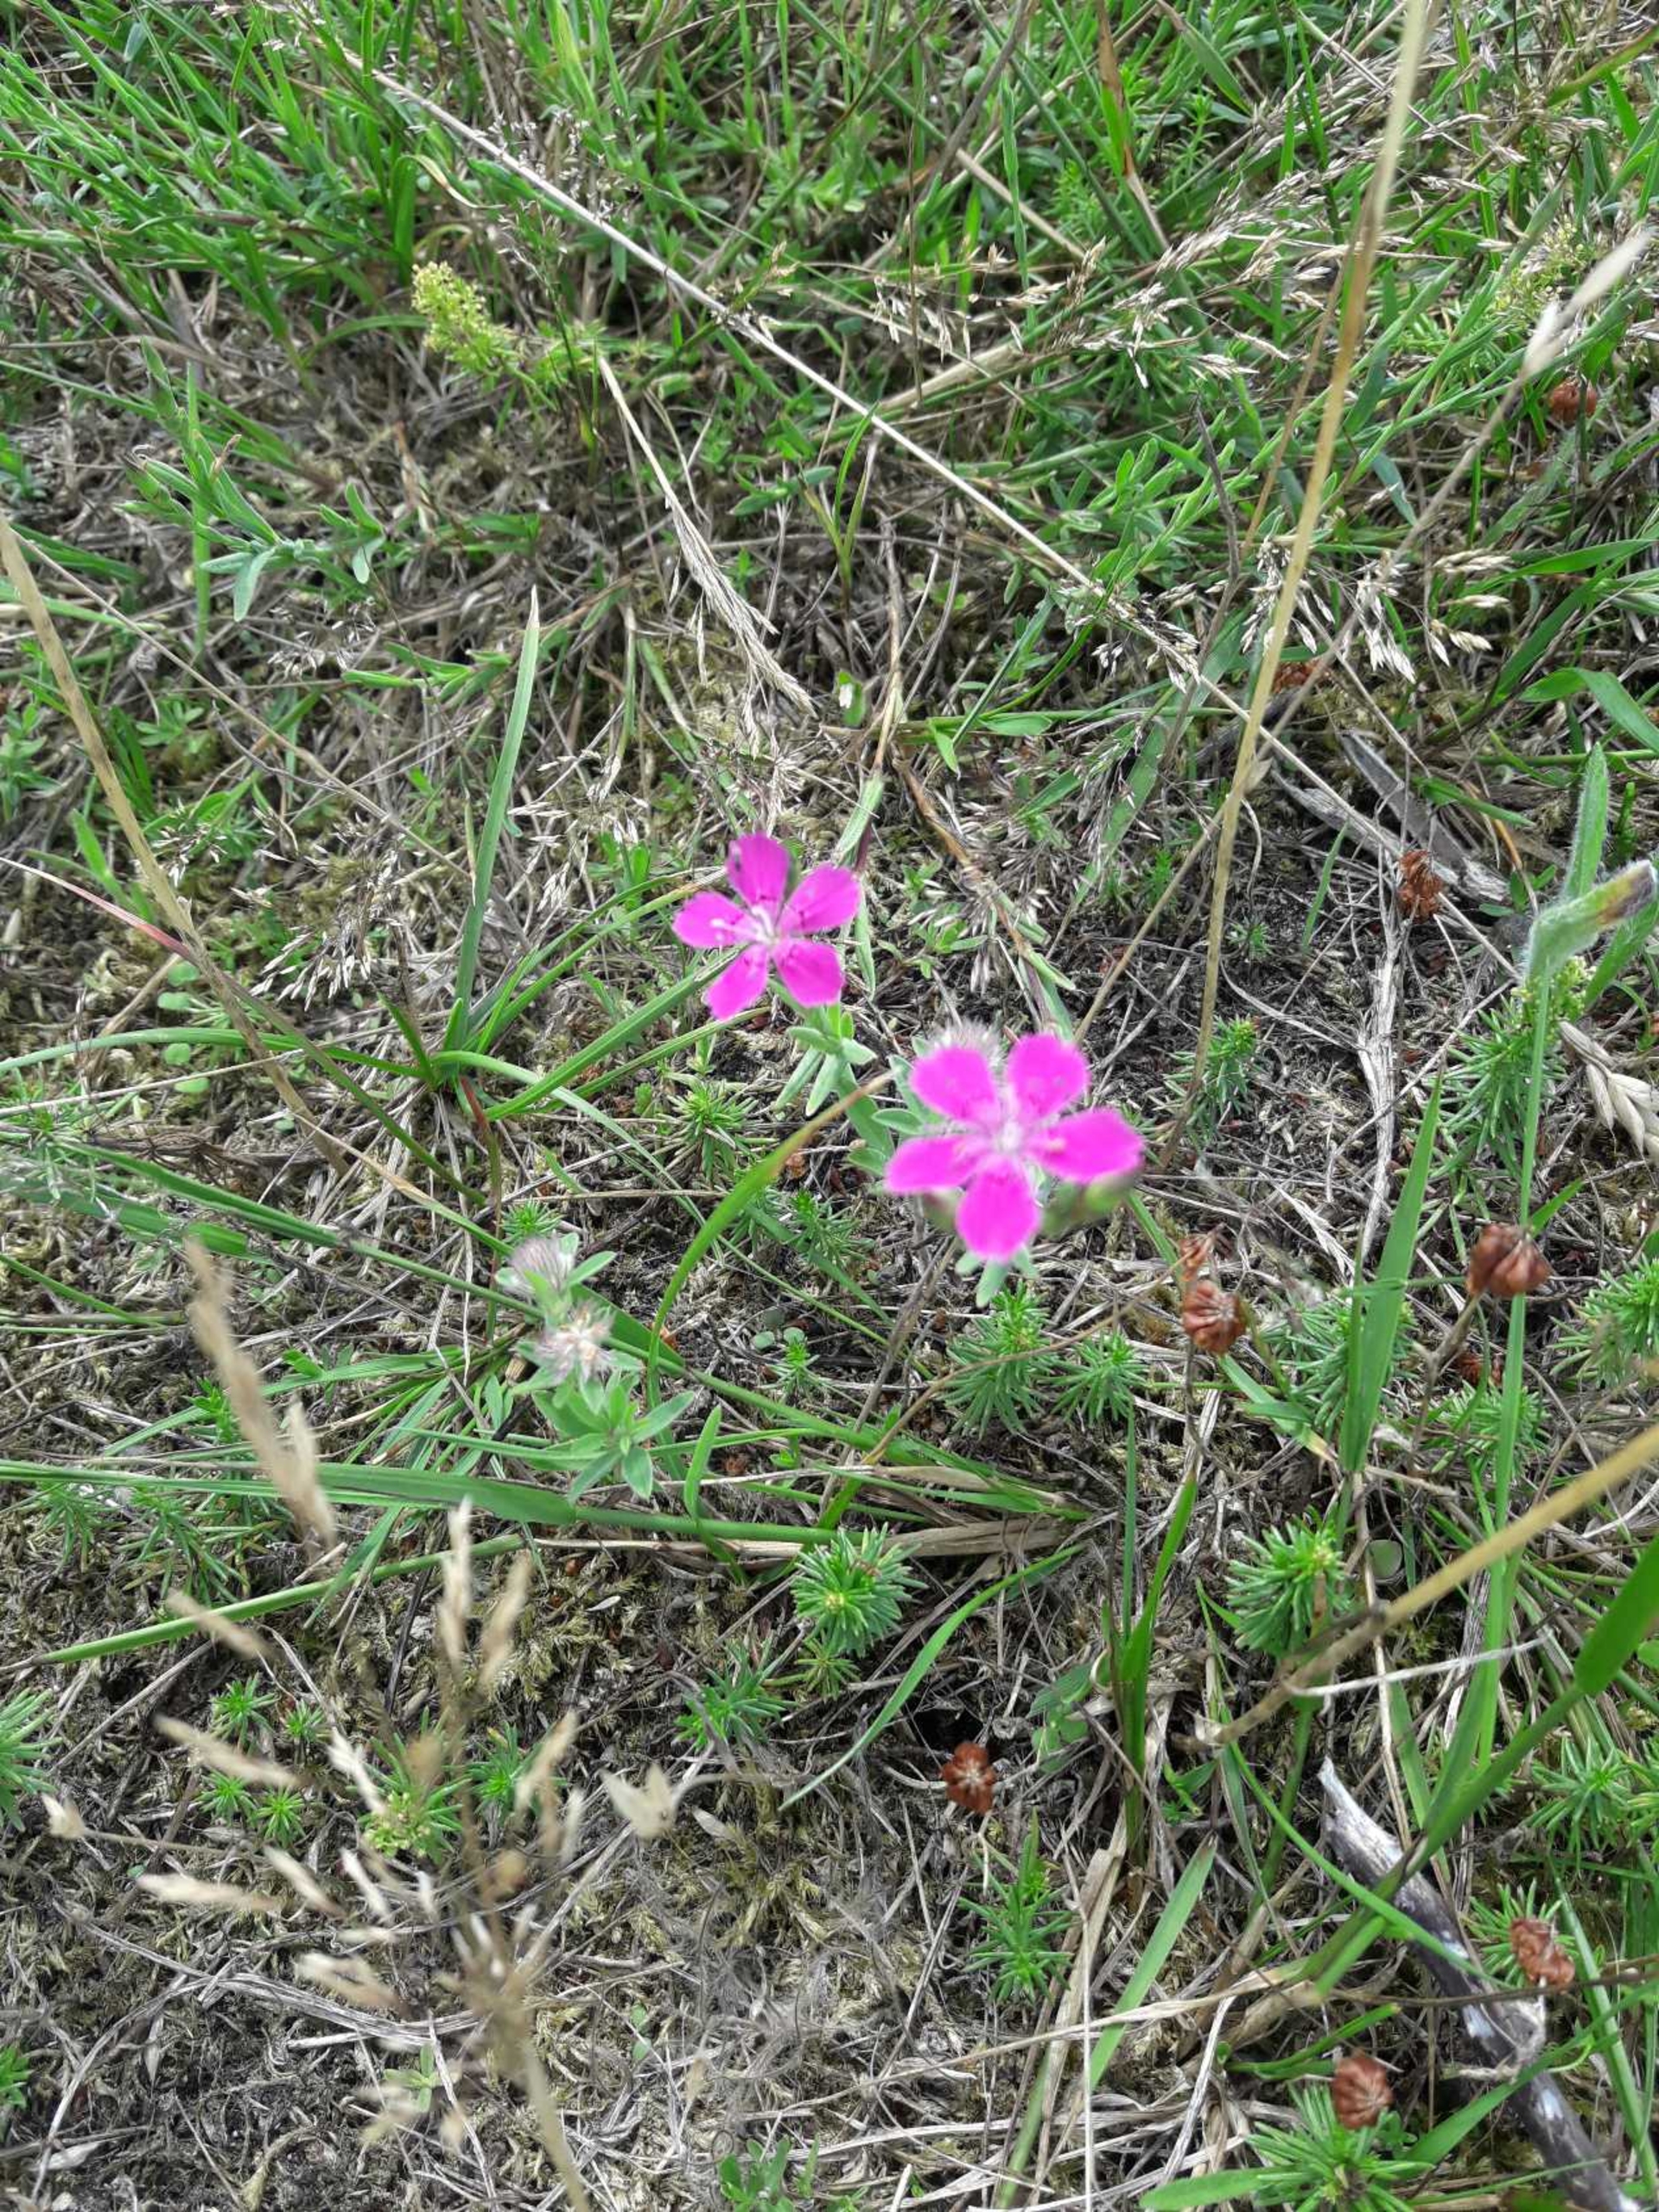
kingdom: Plantae
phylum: Tracheophyta
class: Magnoliopsida
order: Caryophyllales
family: Caryophyllaceae
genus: Dianthus
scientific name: Dianthus deltoides
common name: Bakke-nellike
